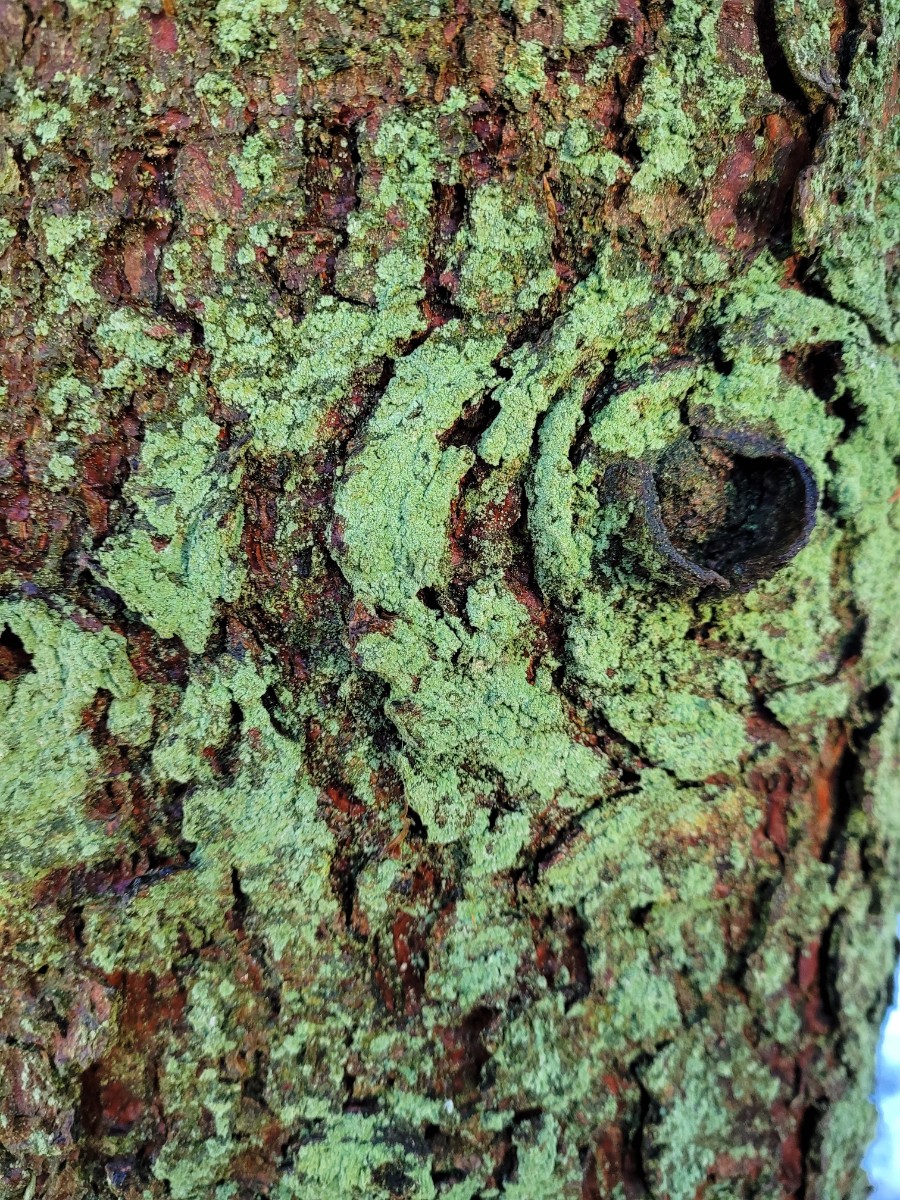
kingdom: Fungi
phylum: Ascomycota
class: Lecanoromycetes
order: Lecanorales
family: Stereocaulaceae
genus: Lepraria
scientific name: Lepraria incana
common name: almindelig støvlav
